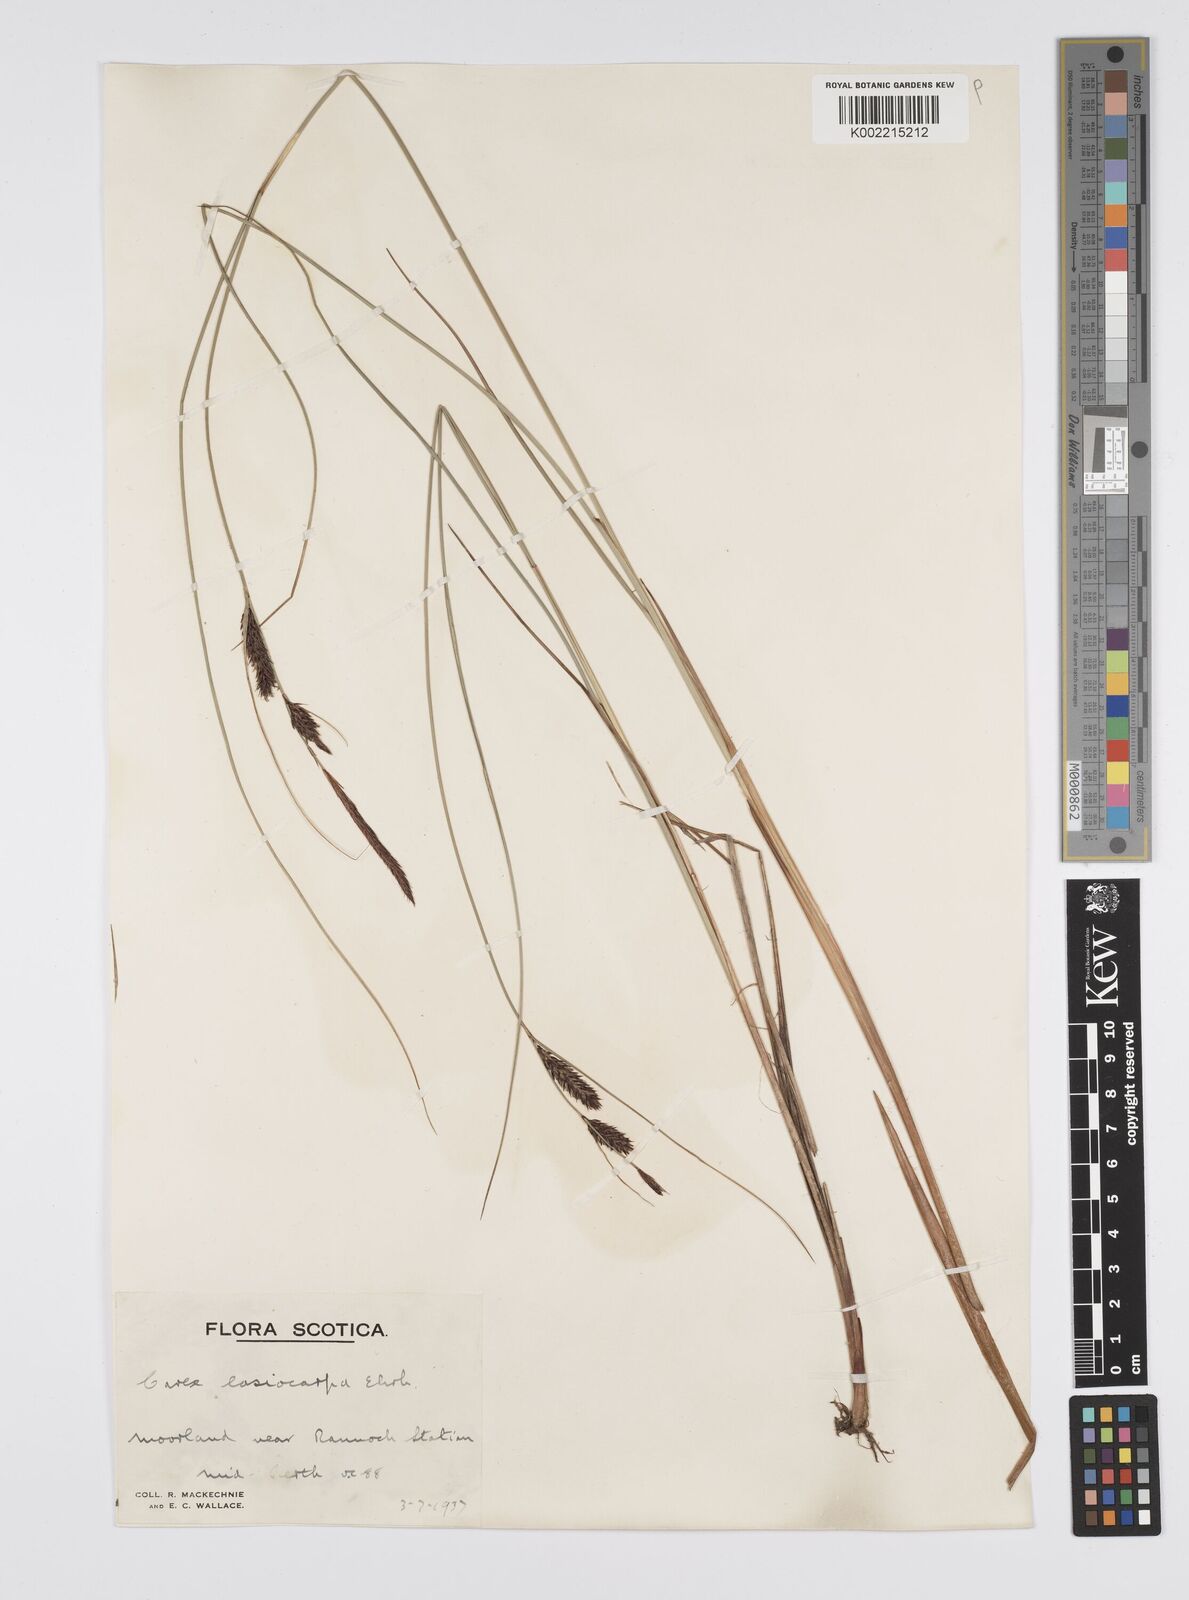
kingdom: Plantae
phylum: Tracheophyta
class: Liliopsida
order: Poales
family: Cyperaceae
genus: Carex
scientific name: Carex lasiocarpa
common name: Slender sedge
